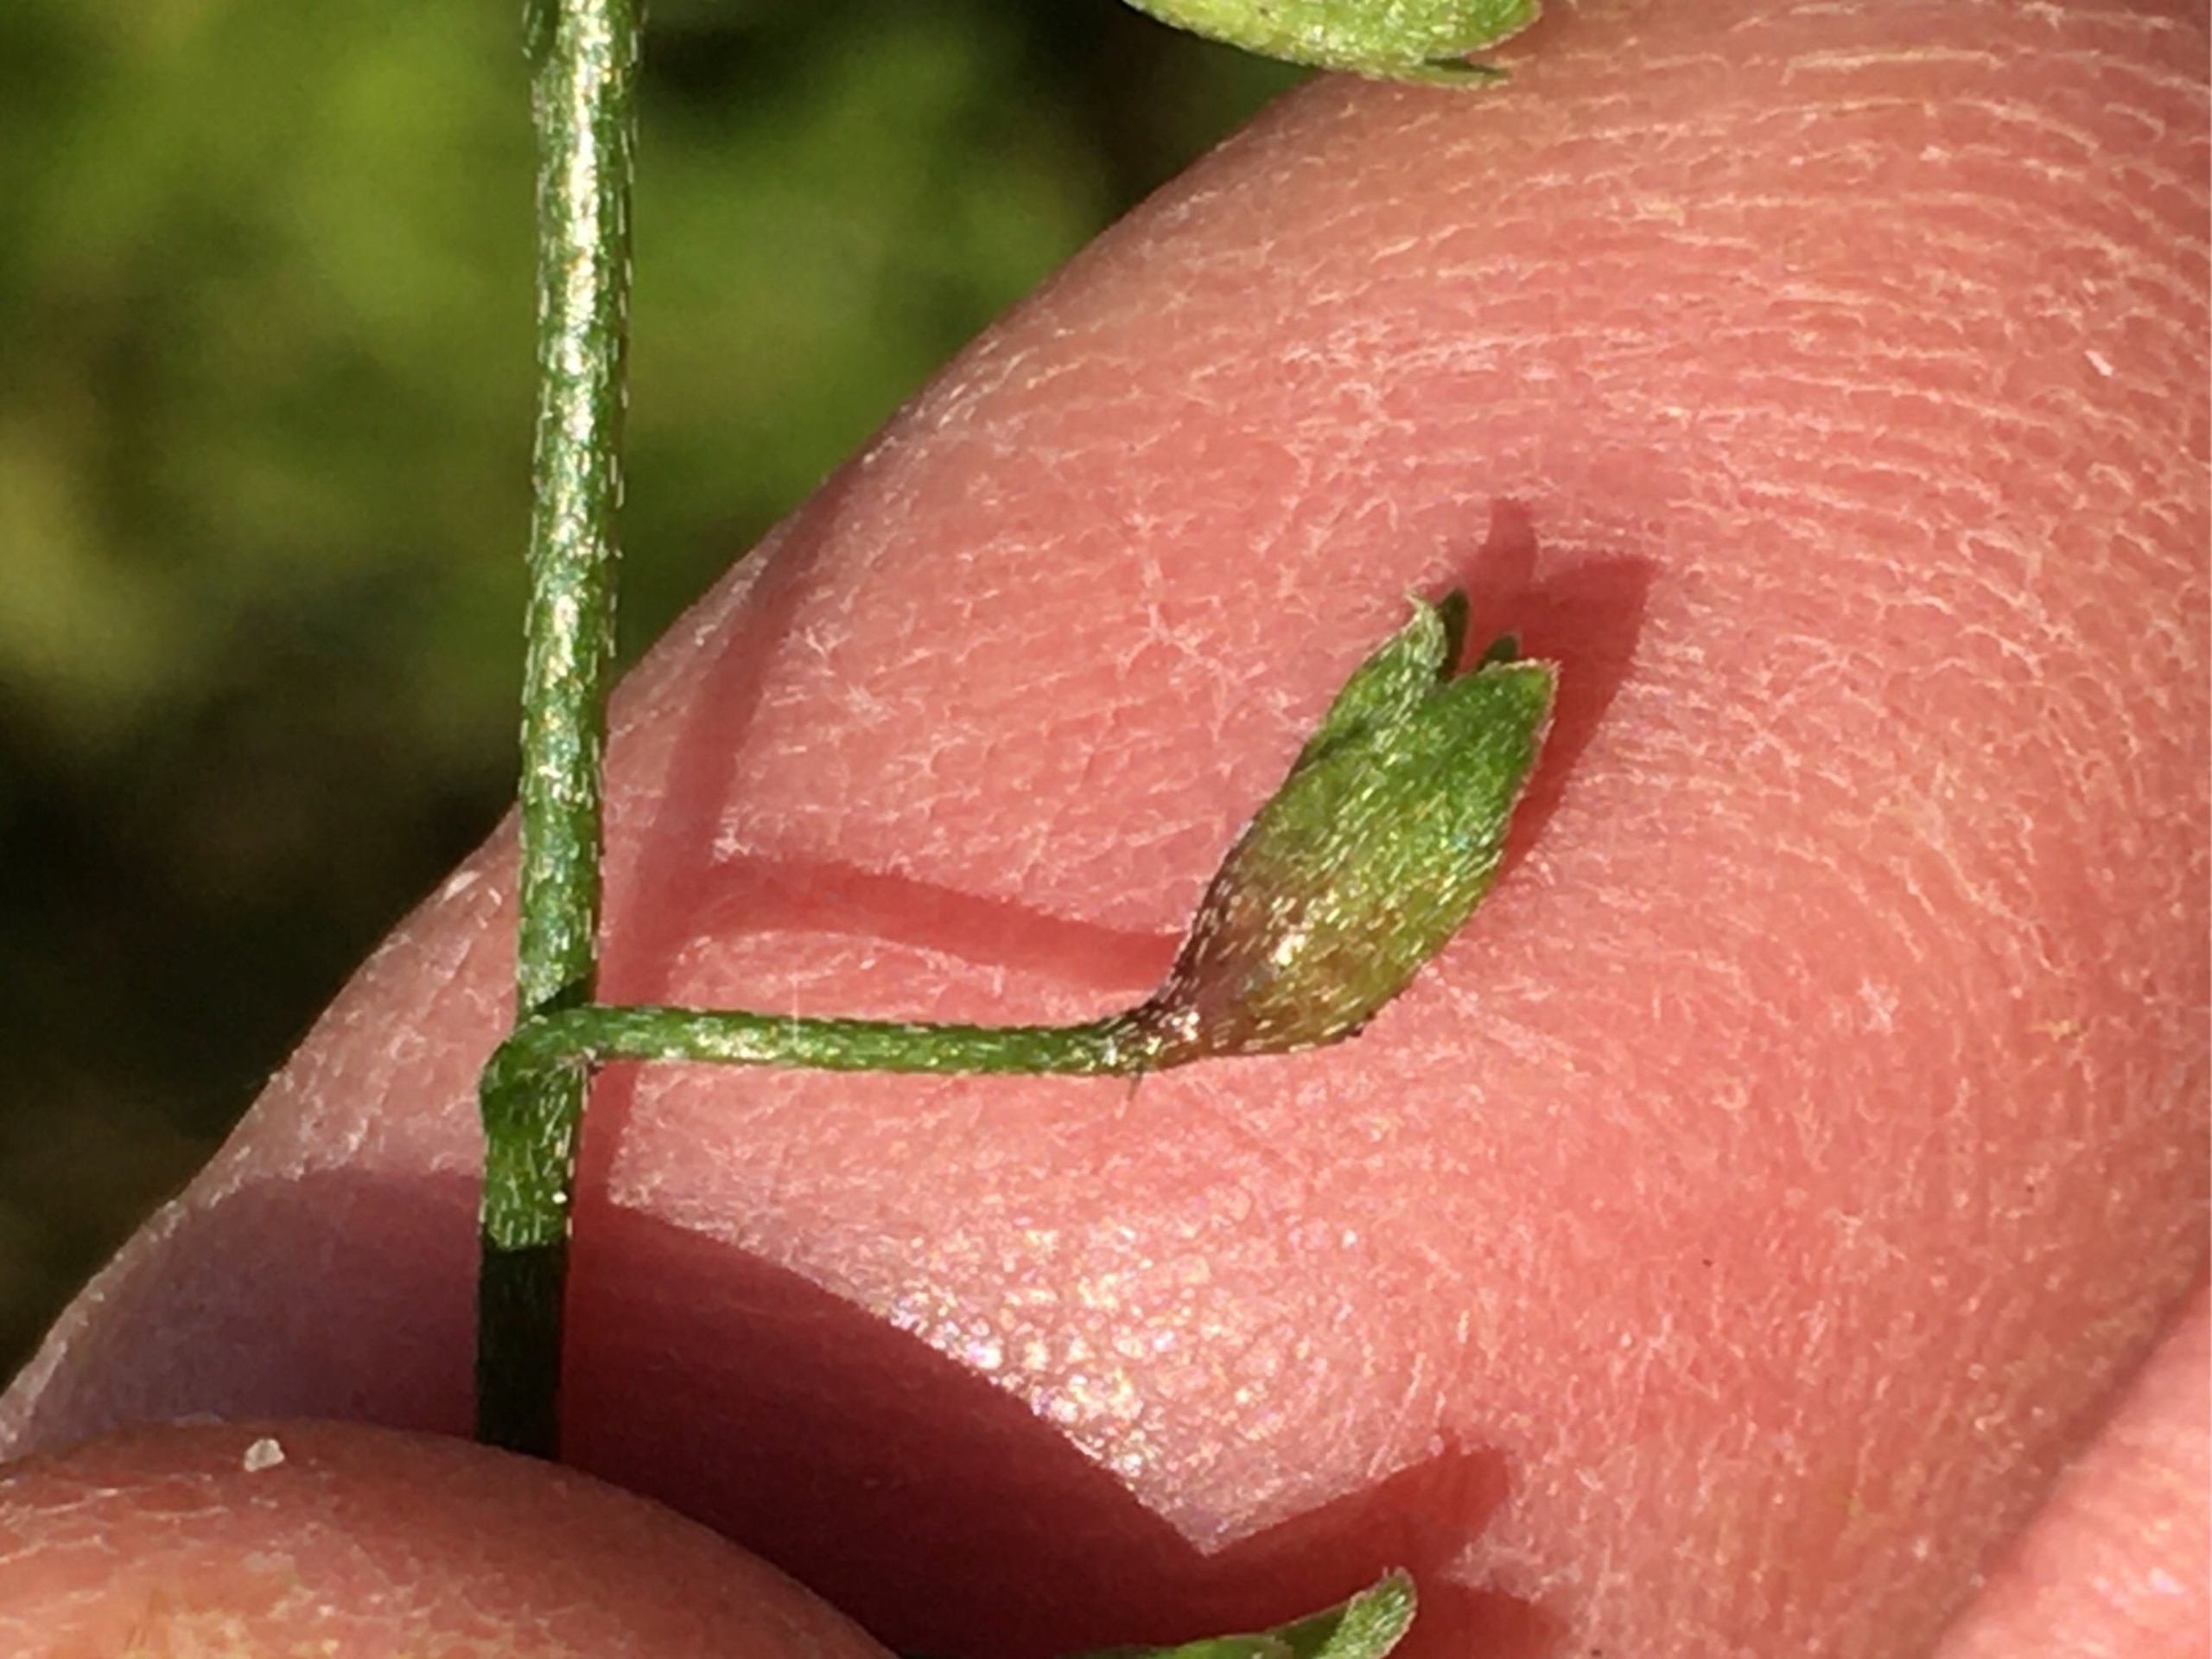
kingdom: Animalia
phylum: Arthropoda
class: Insecta
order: Diptera
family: Cecidomyiidae
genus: Dasineura
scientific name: Dasineura myosotidis
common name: Forglemmigejgalmyg
